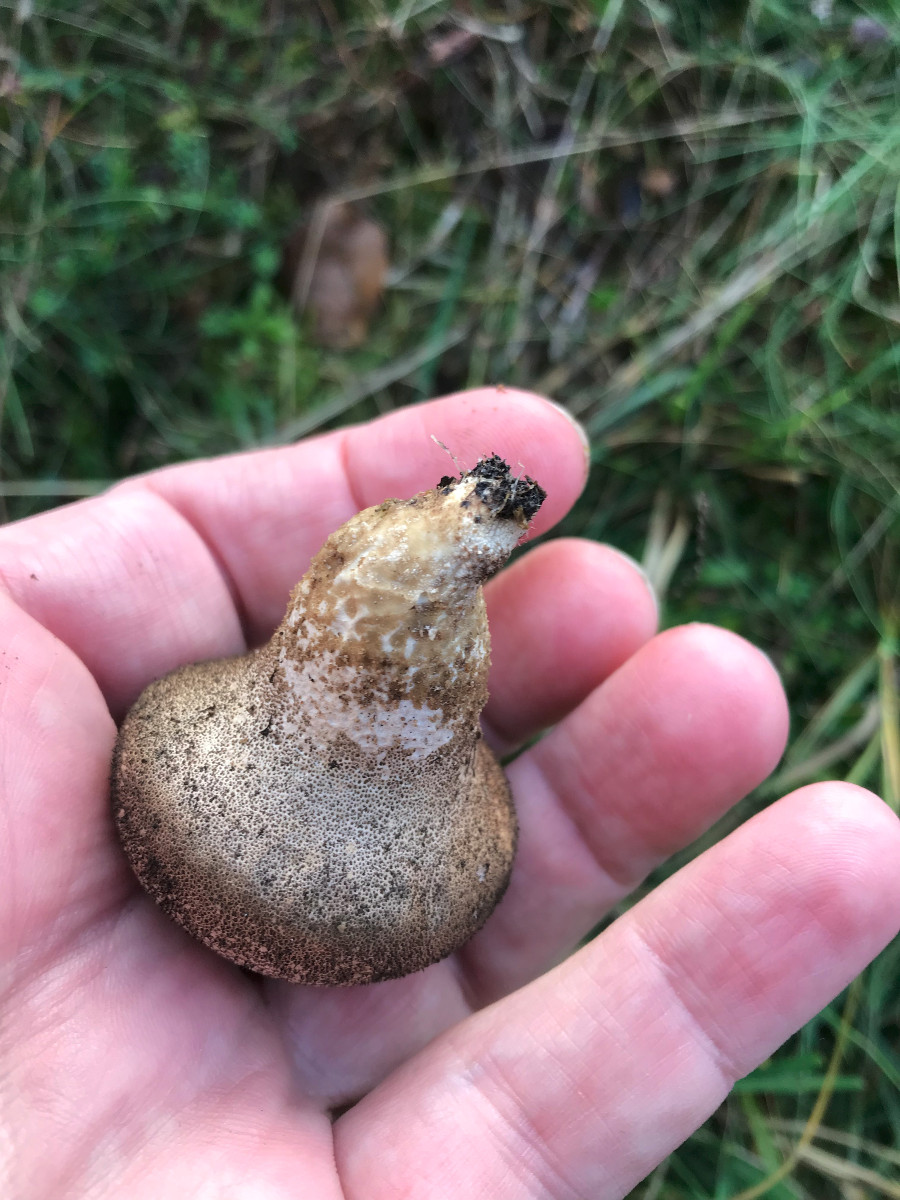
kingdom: Fungi
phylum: Basidiomycota
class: Agaricomycetes
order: Agaricales
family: Lycoperdaceae
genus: Lycoperdon
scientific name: Lycoperdon nigrescens
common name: sortagtig støvbold
